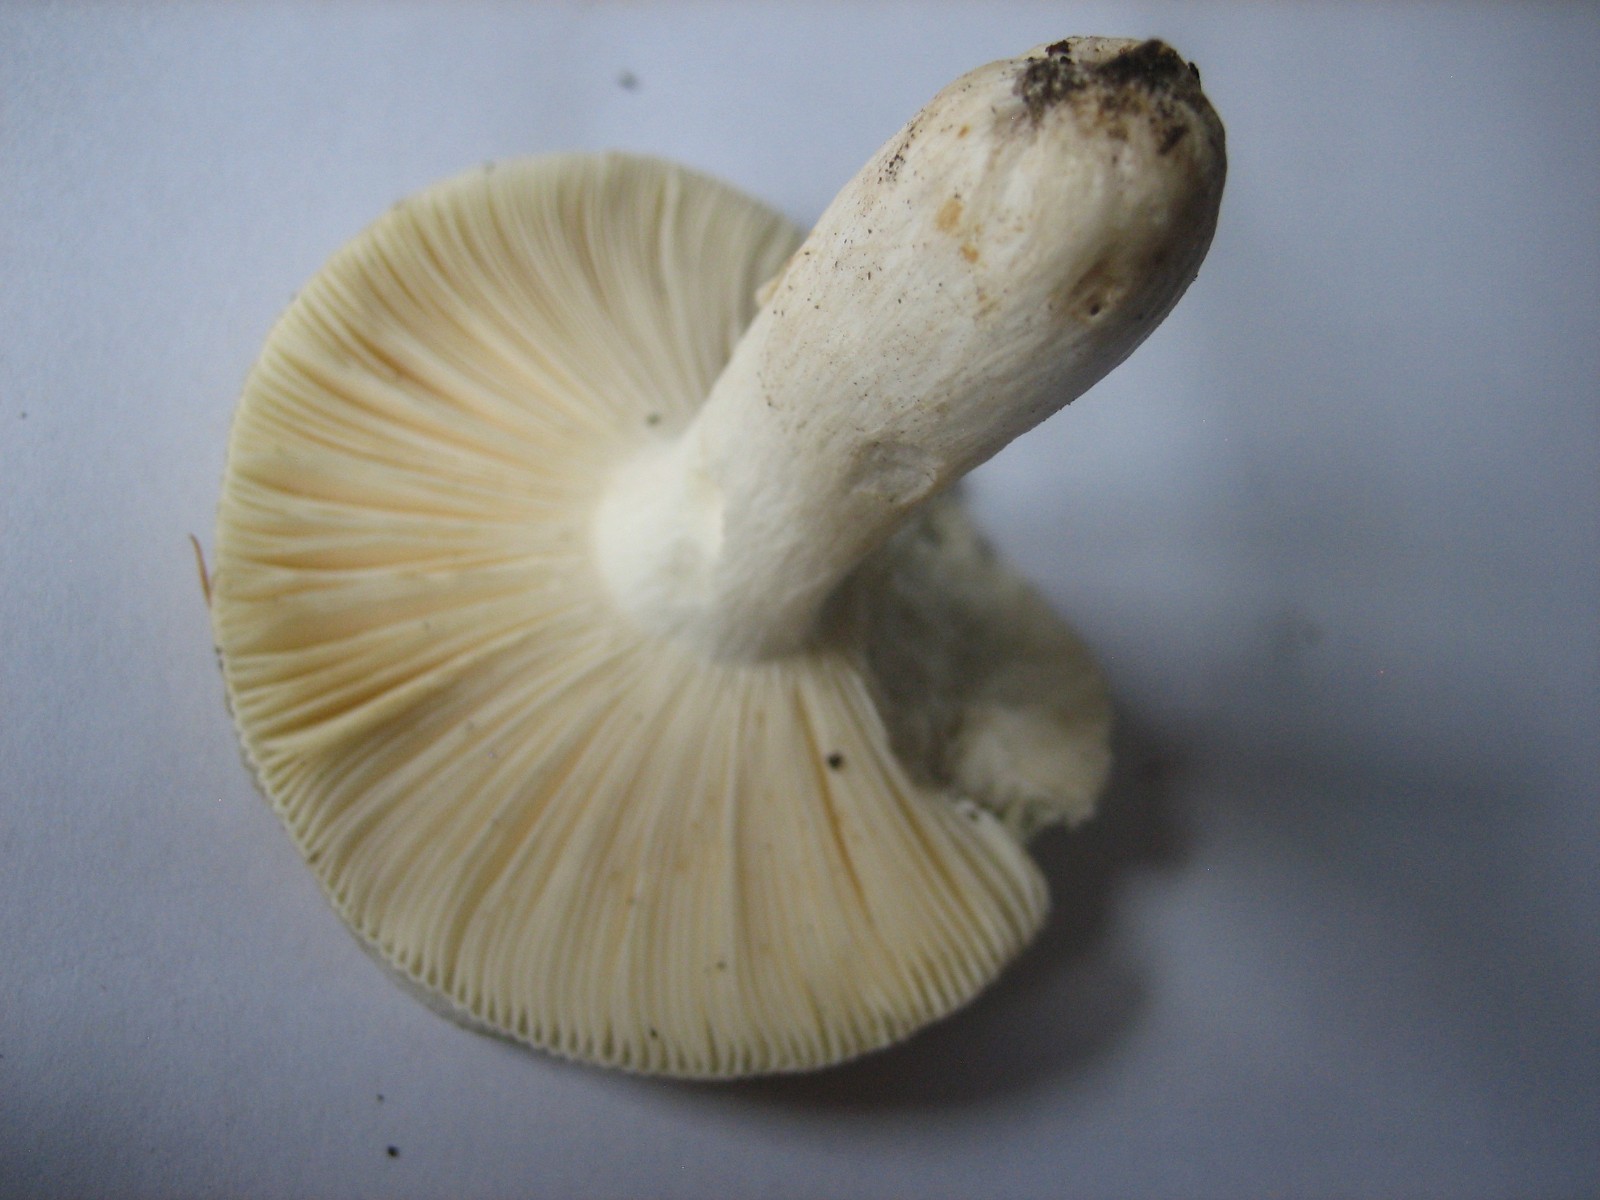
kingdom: Fungi
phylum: Basidiomycota
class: Agaricomycetes
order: Russulales
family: Russulaceae
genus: Russula
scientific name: Russula
